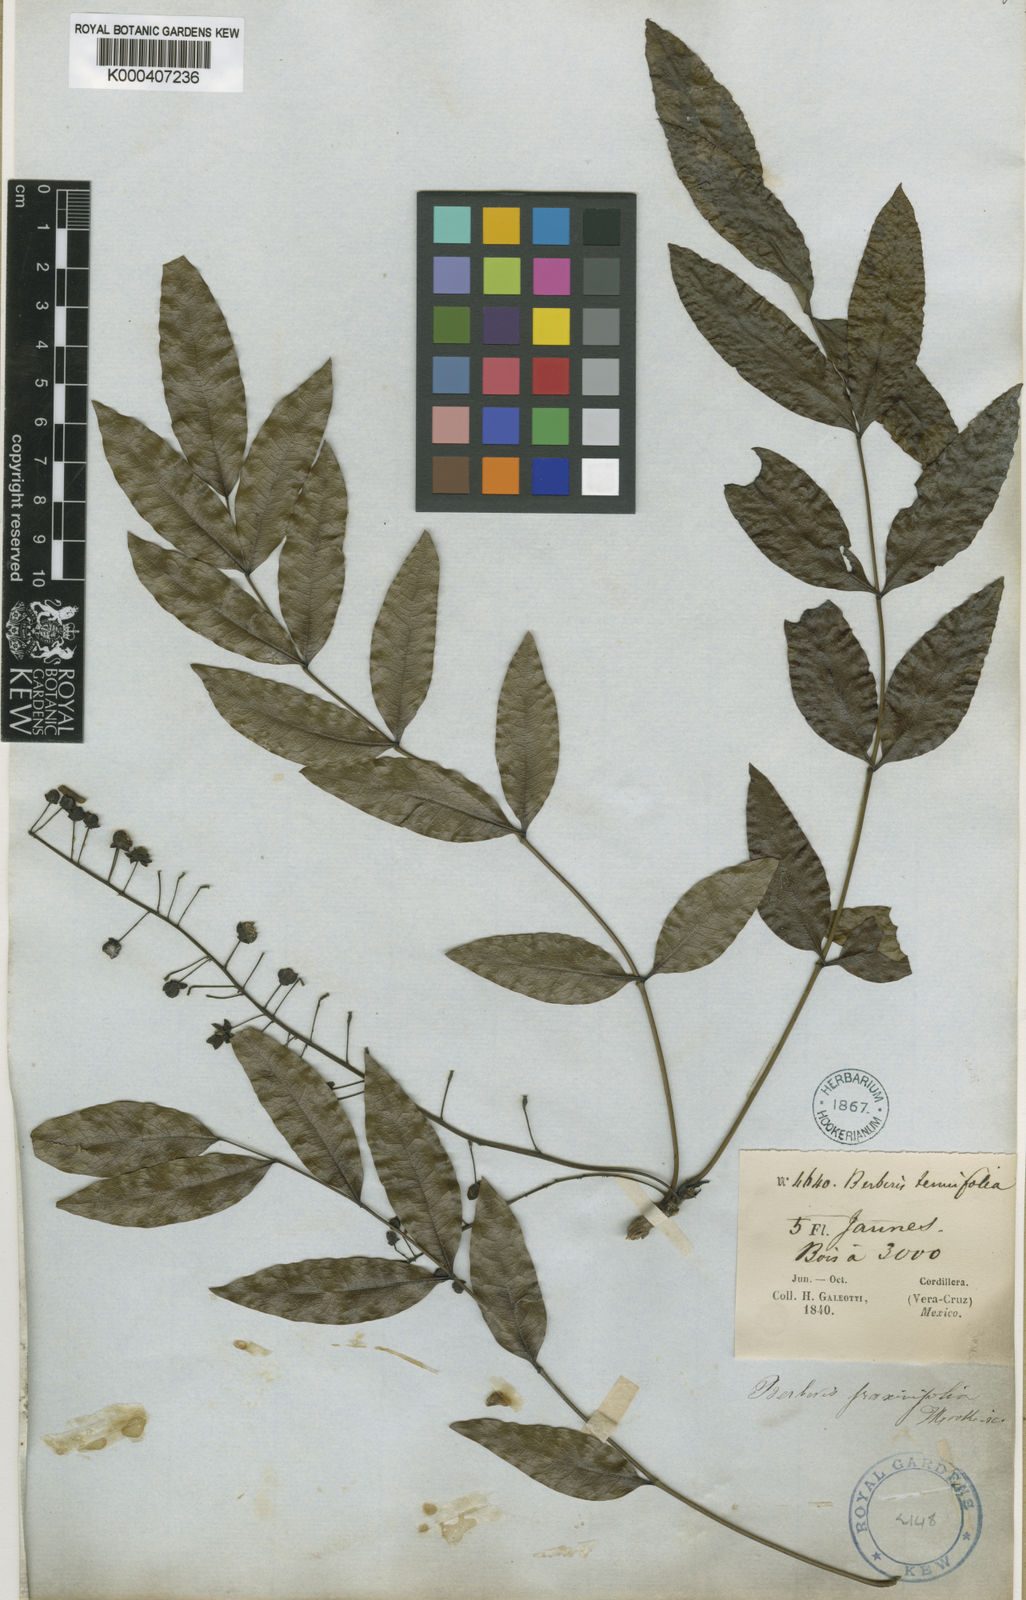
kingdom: Plantae
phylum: Tracheophyta
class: Magnoliopsida
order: Ranunculales
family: Berberidaceae
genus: Mahonia
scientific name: Mahonia
